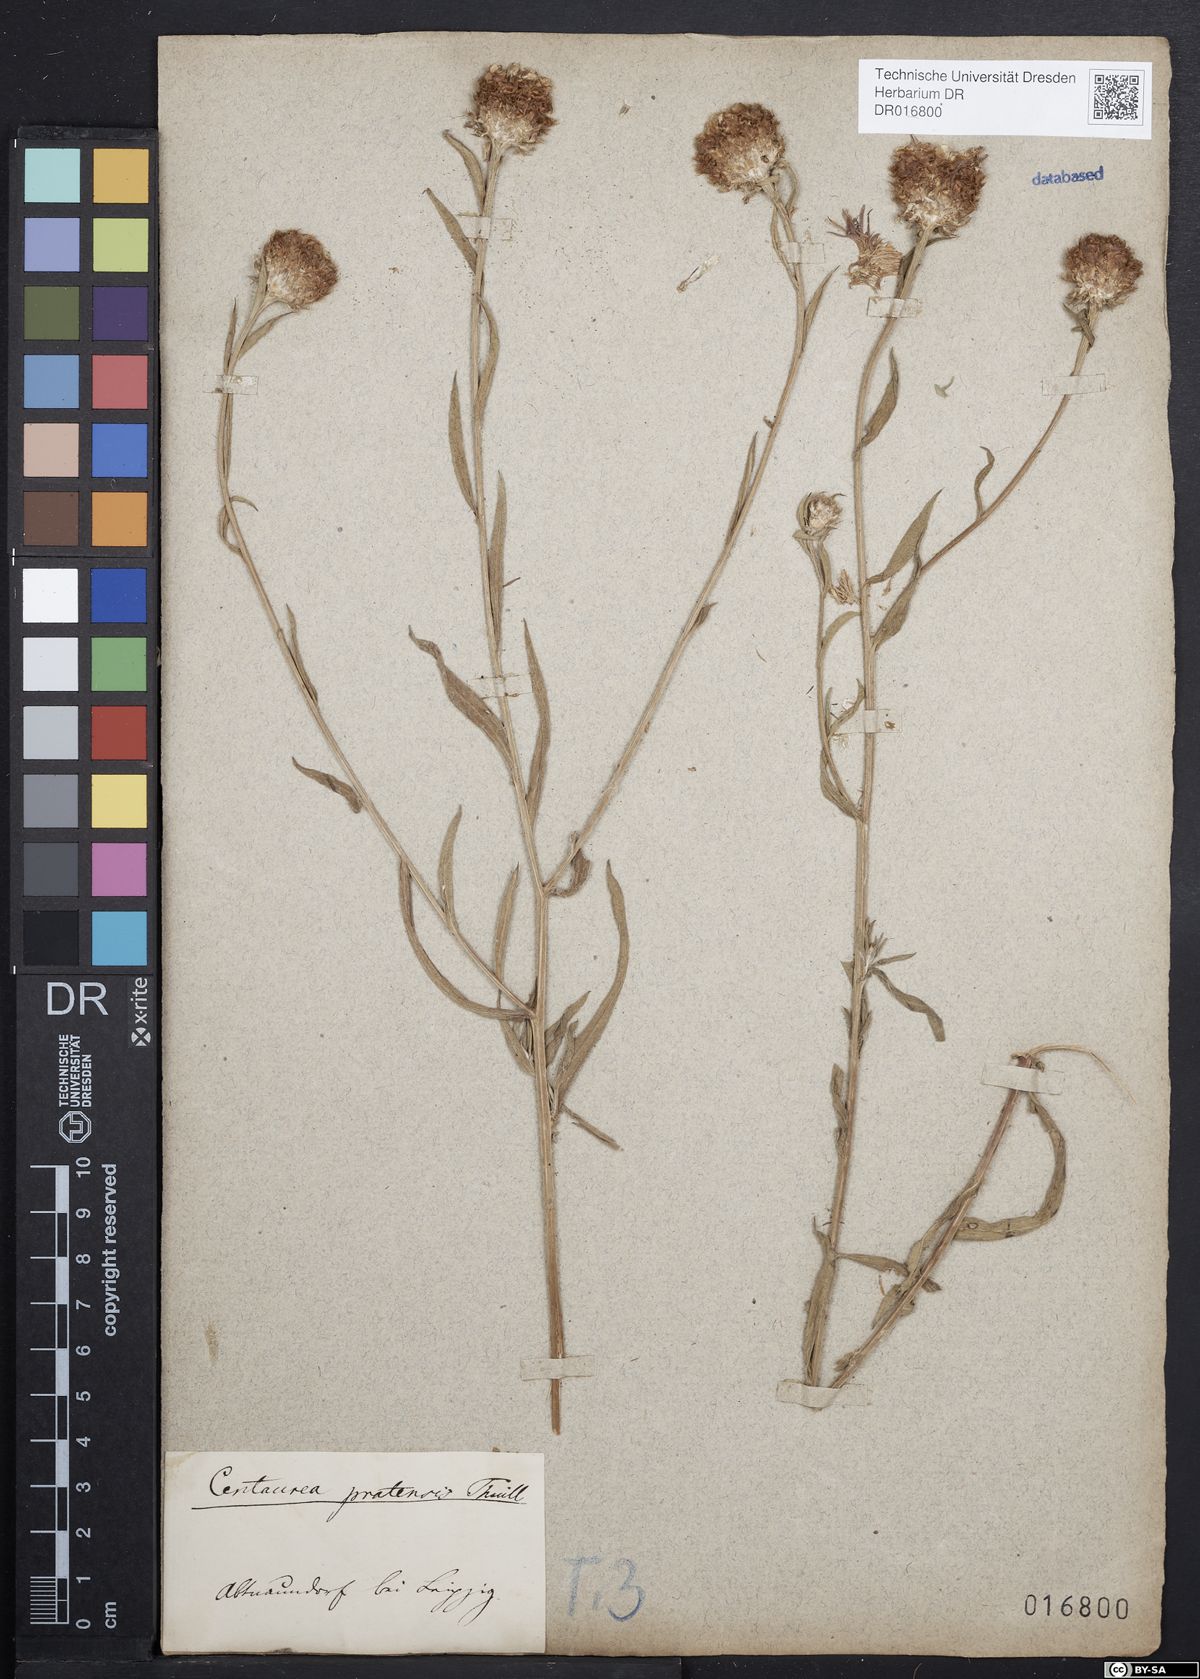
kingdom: Plantae
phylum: Tracheophyta
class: Magnoliopsida
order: Asterales
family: Asteraceae
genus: Centaurea
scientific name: Centaurea jacea
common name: Brown knapweed
